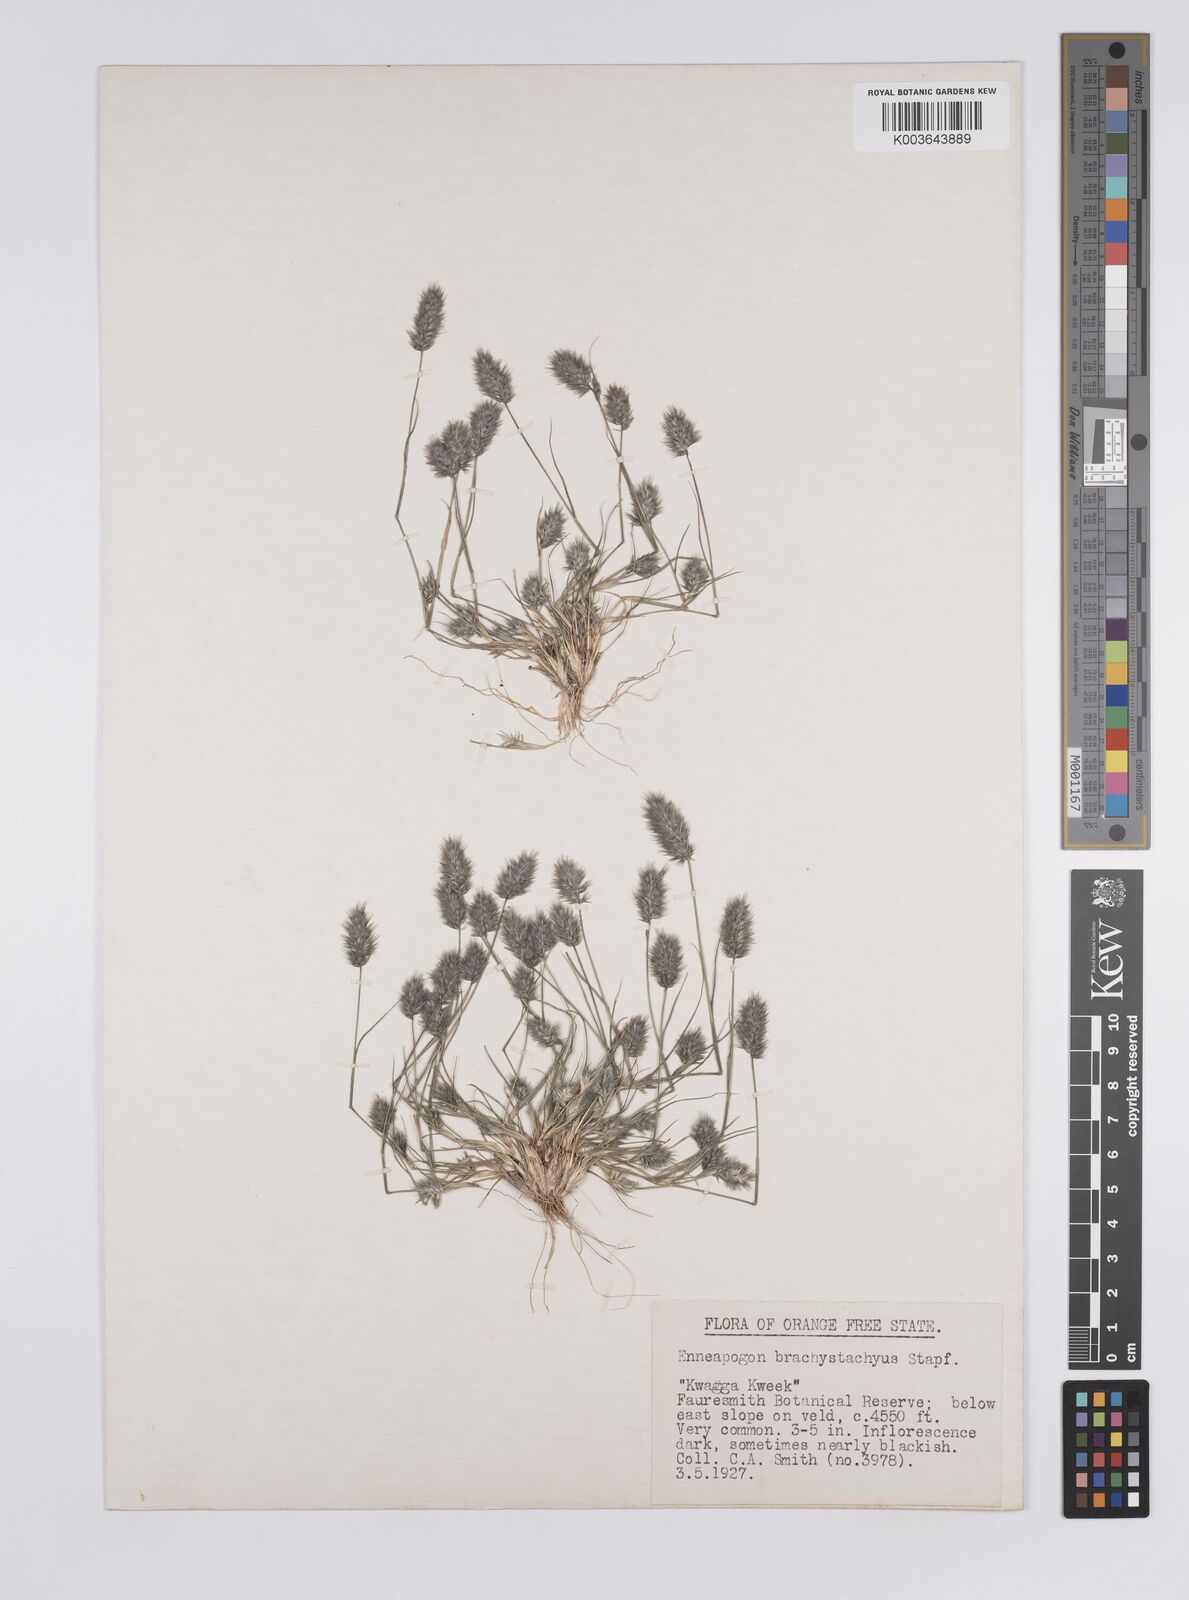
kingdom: Plantae
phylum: Tracheophyta
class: Liliopsida
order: Poales
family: Poaceae
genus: Enneapogon
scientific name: Enneapogon desvauxii
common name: Feather pappus grass
